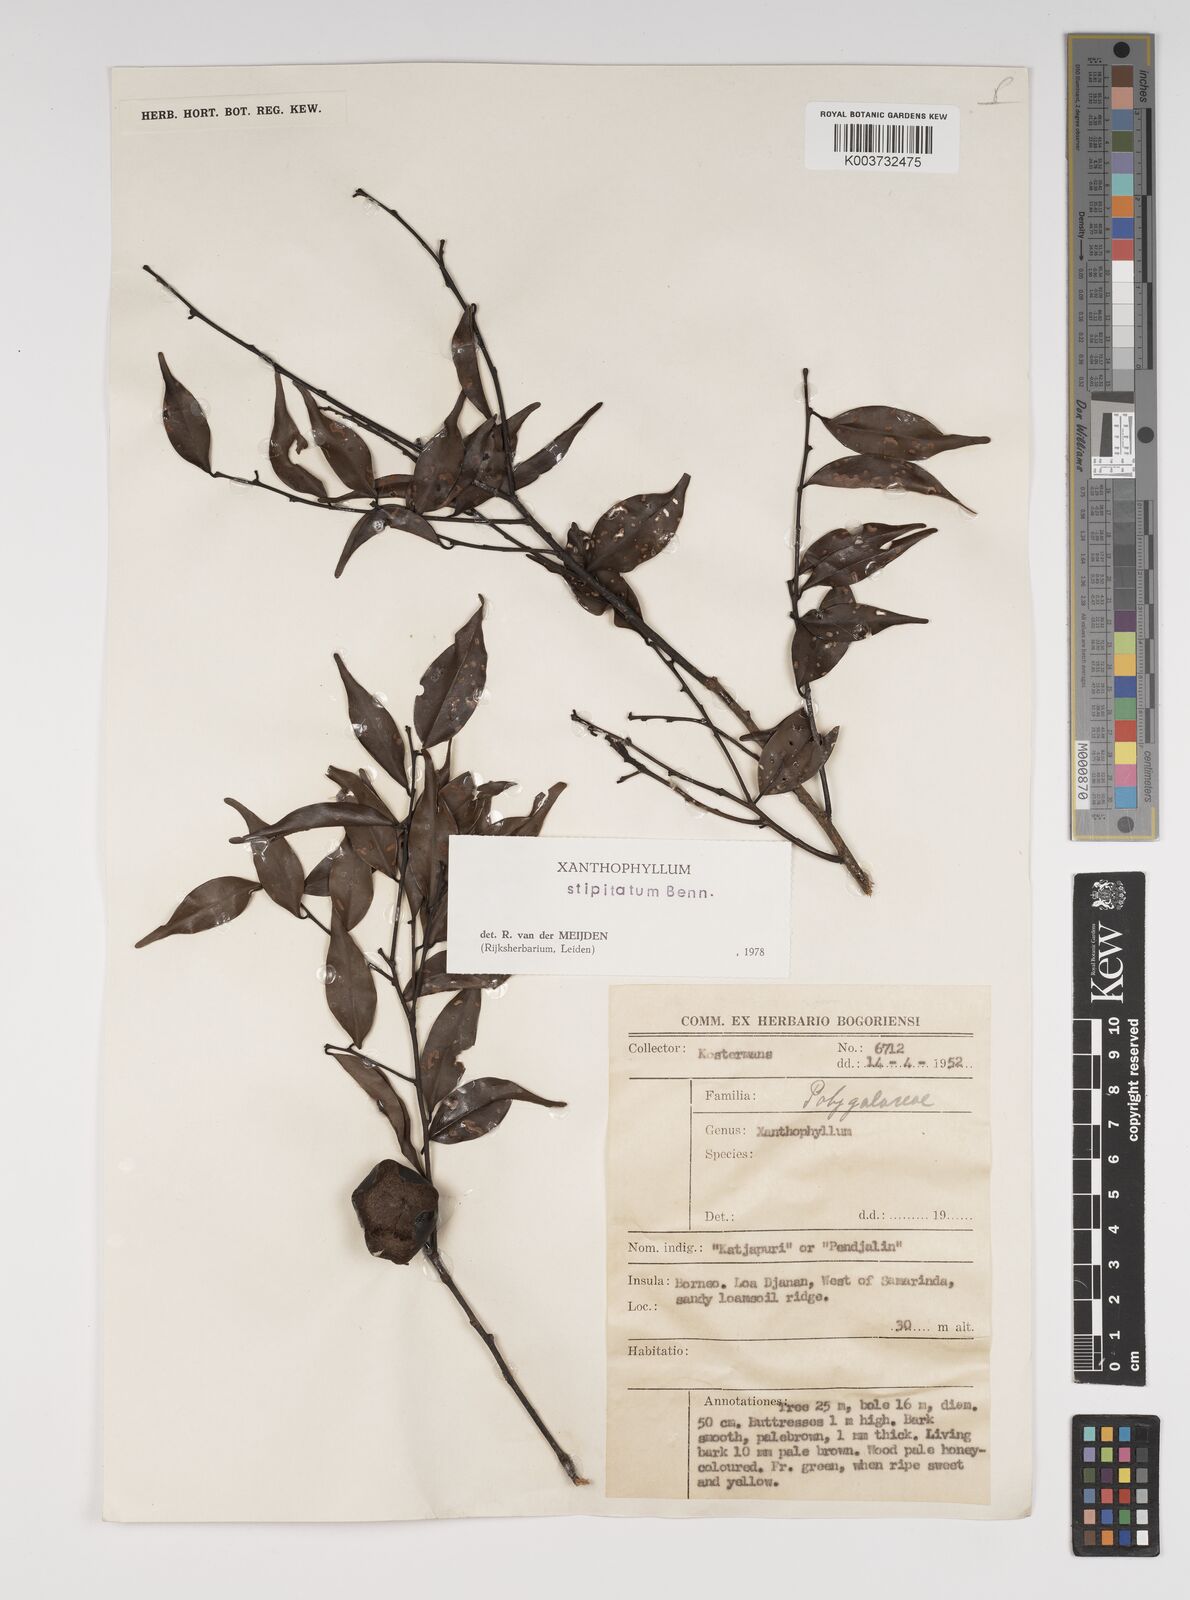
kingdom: Plantae
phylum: Tracheophyta
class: Magnoliopsida
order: Fabales
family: Polygalaceae
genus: Xanthophyllum
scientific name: Xanthophyllum stipitatum
